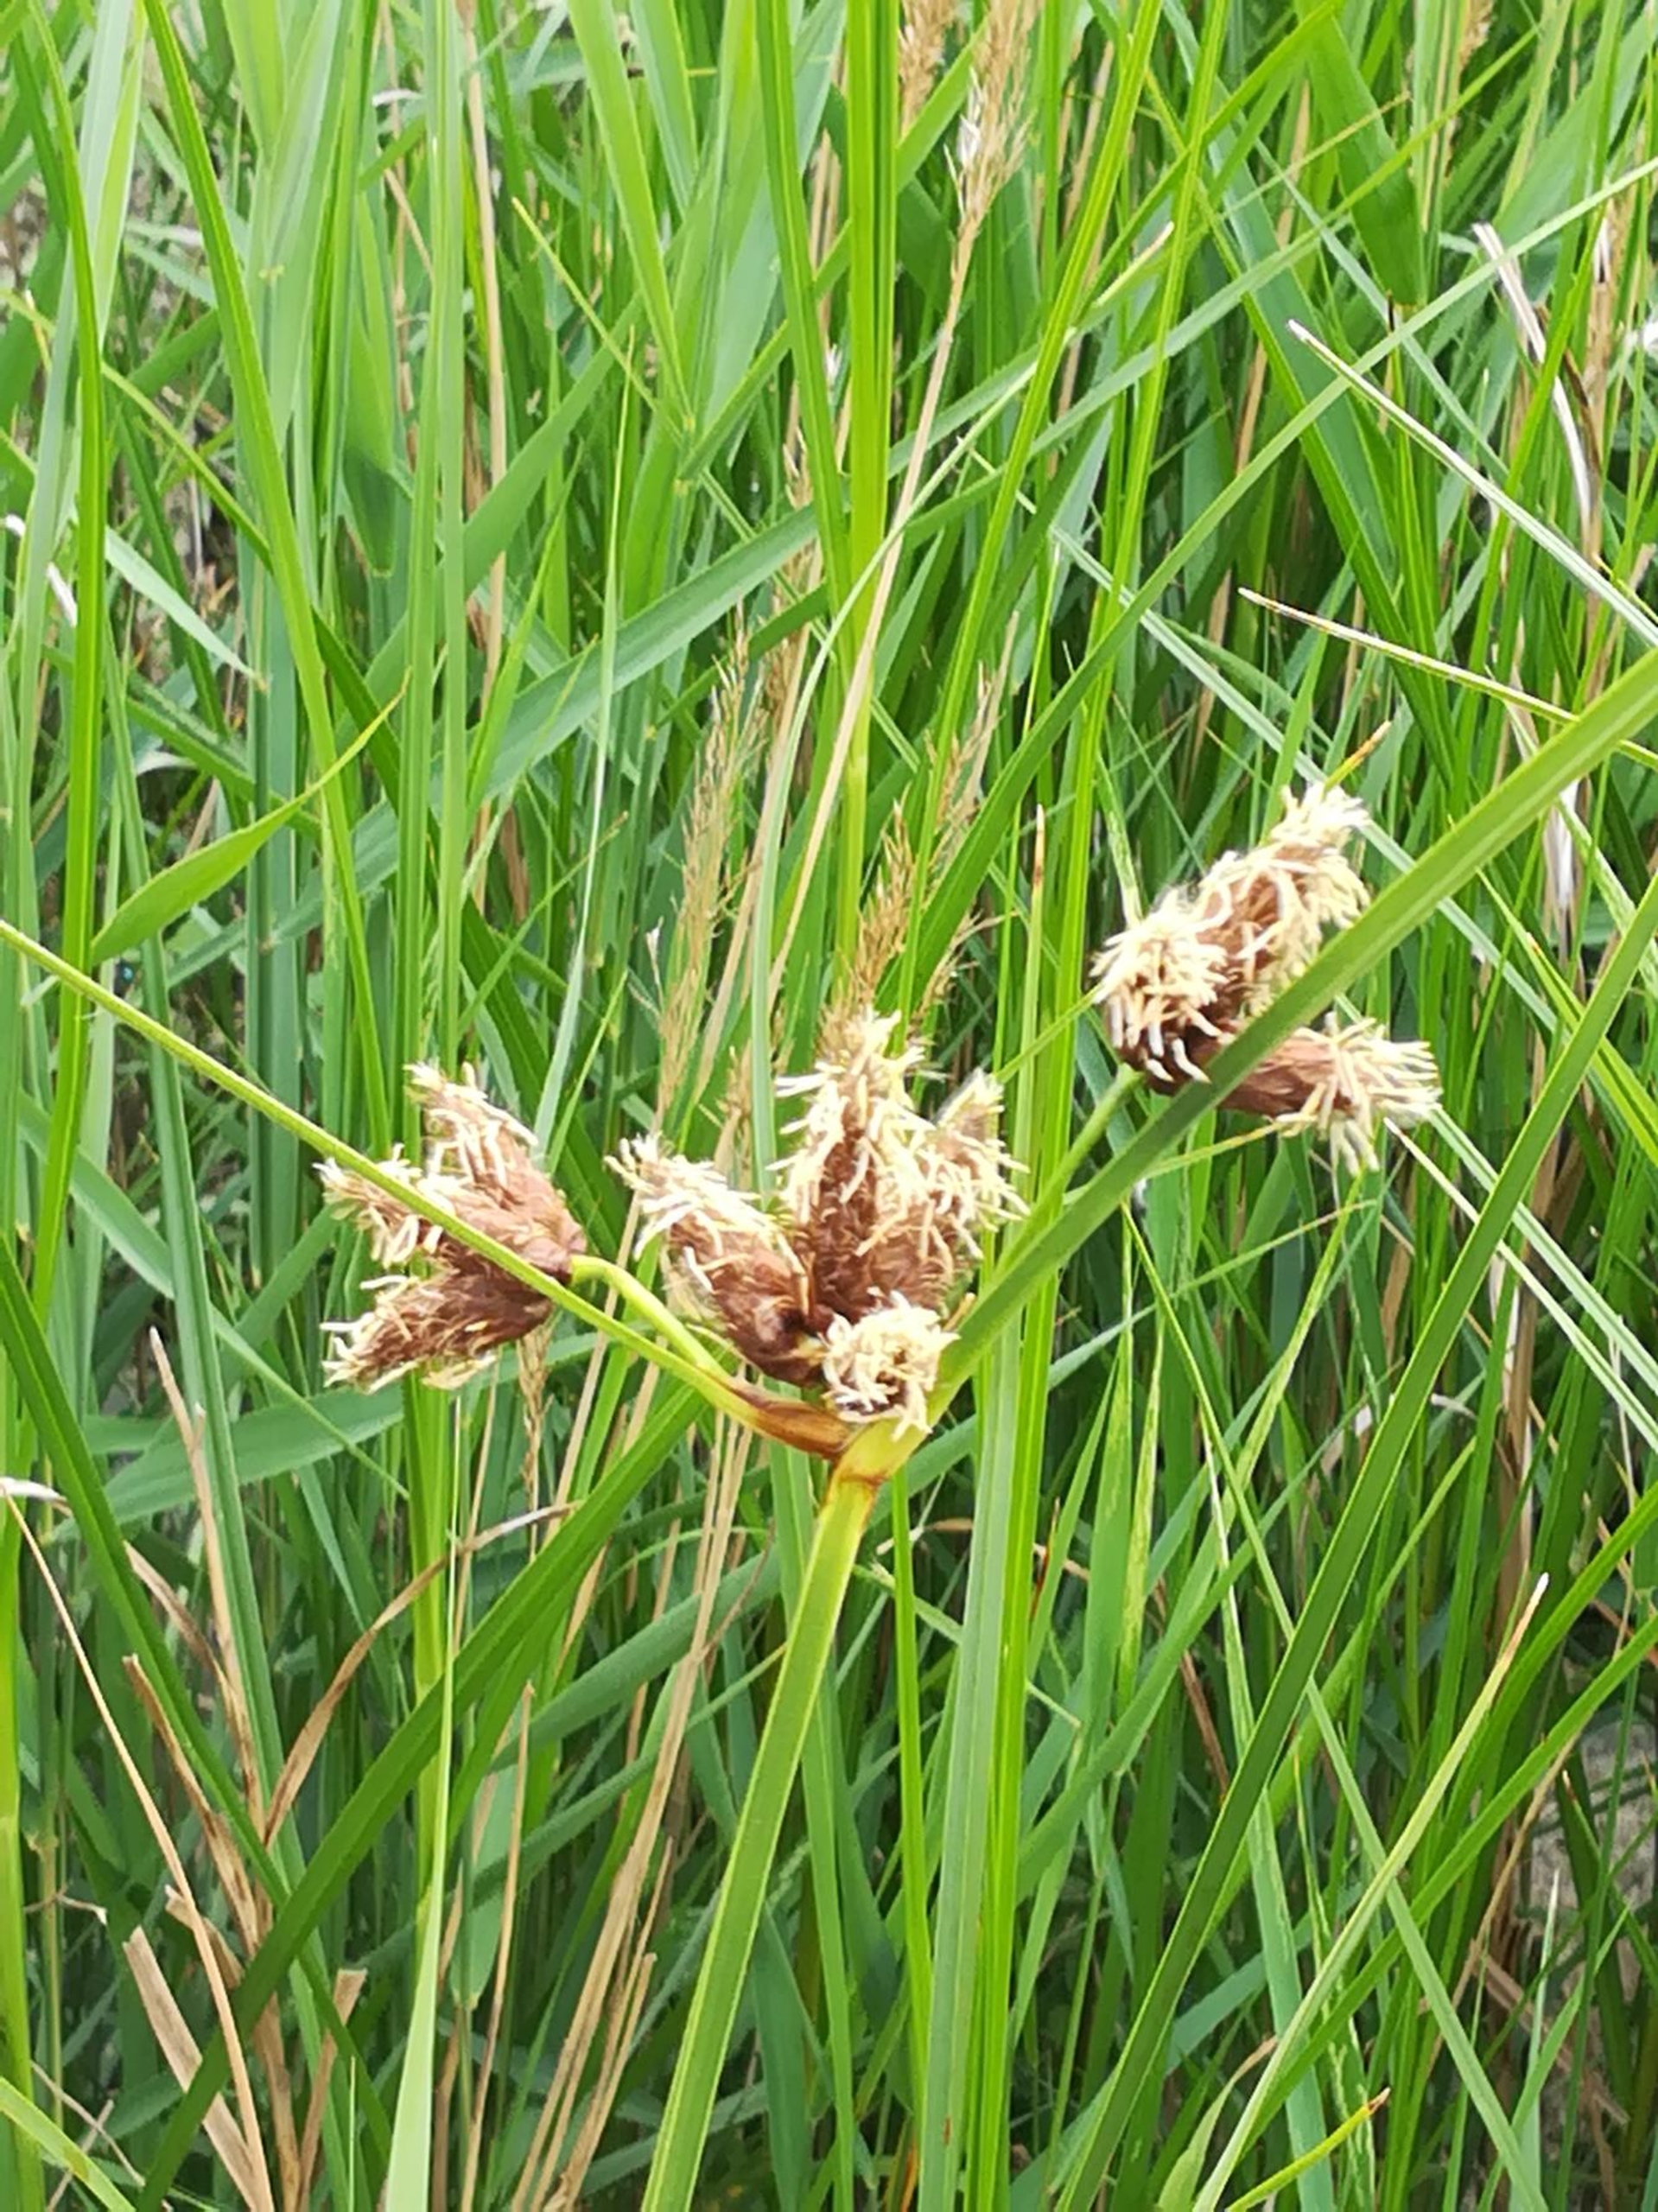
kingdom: Plantae
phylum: Tracheophyta
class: Liliopsida
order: Poales
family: Cyperaceae
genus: Bolboschoenus
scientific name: Bolboschoenus maritimus
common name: Strand-kogleaks
